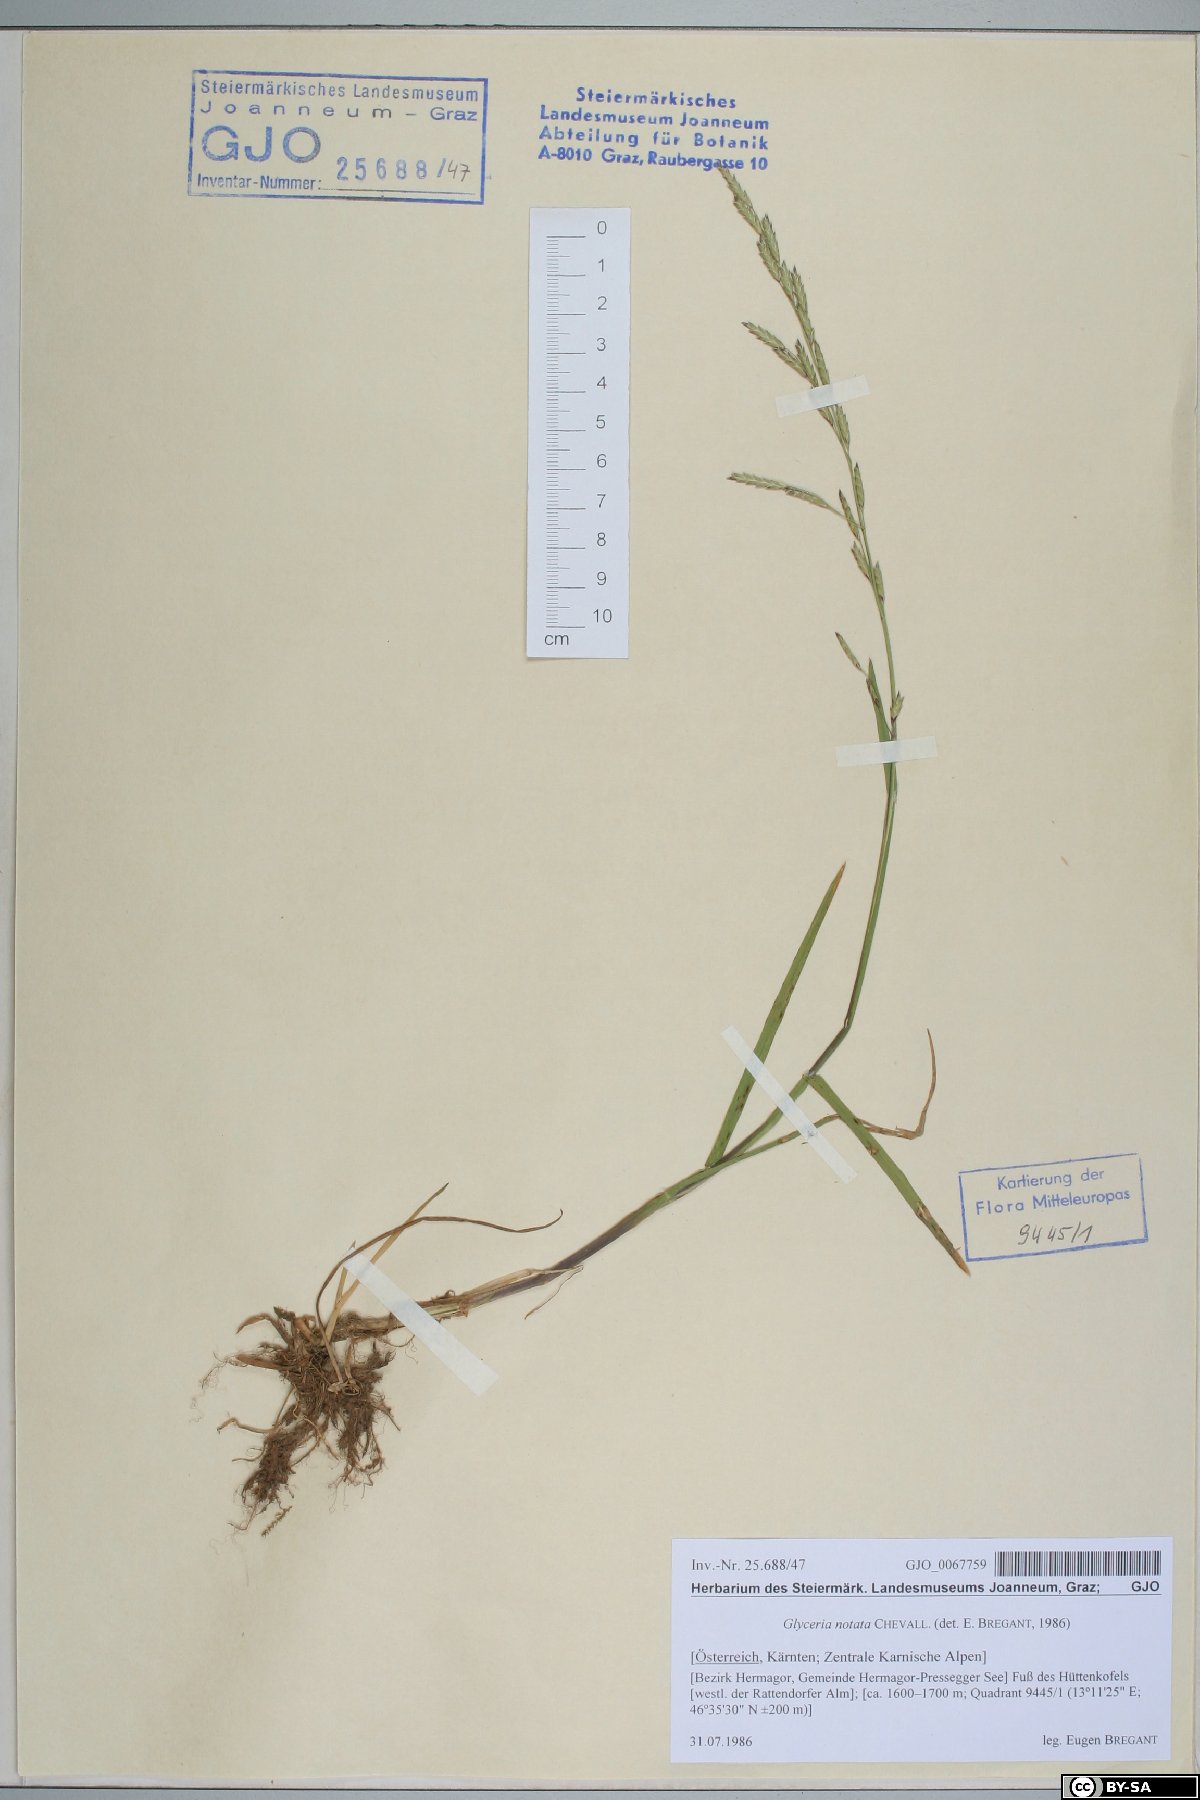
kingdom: Plantae
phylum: Tracheophyta
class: Liliopsida
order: Poales
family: Poaceae
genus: Glyceria
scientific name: Glyceria notata
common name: Plicate sweet-grass
